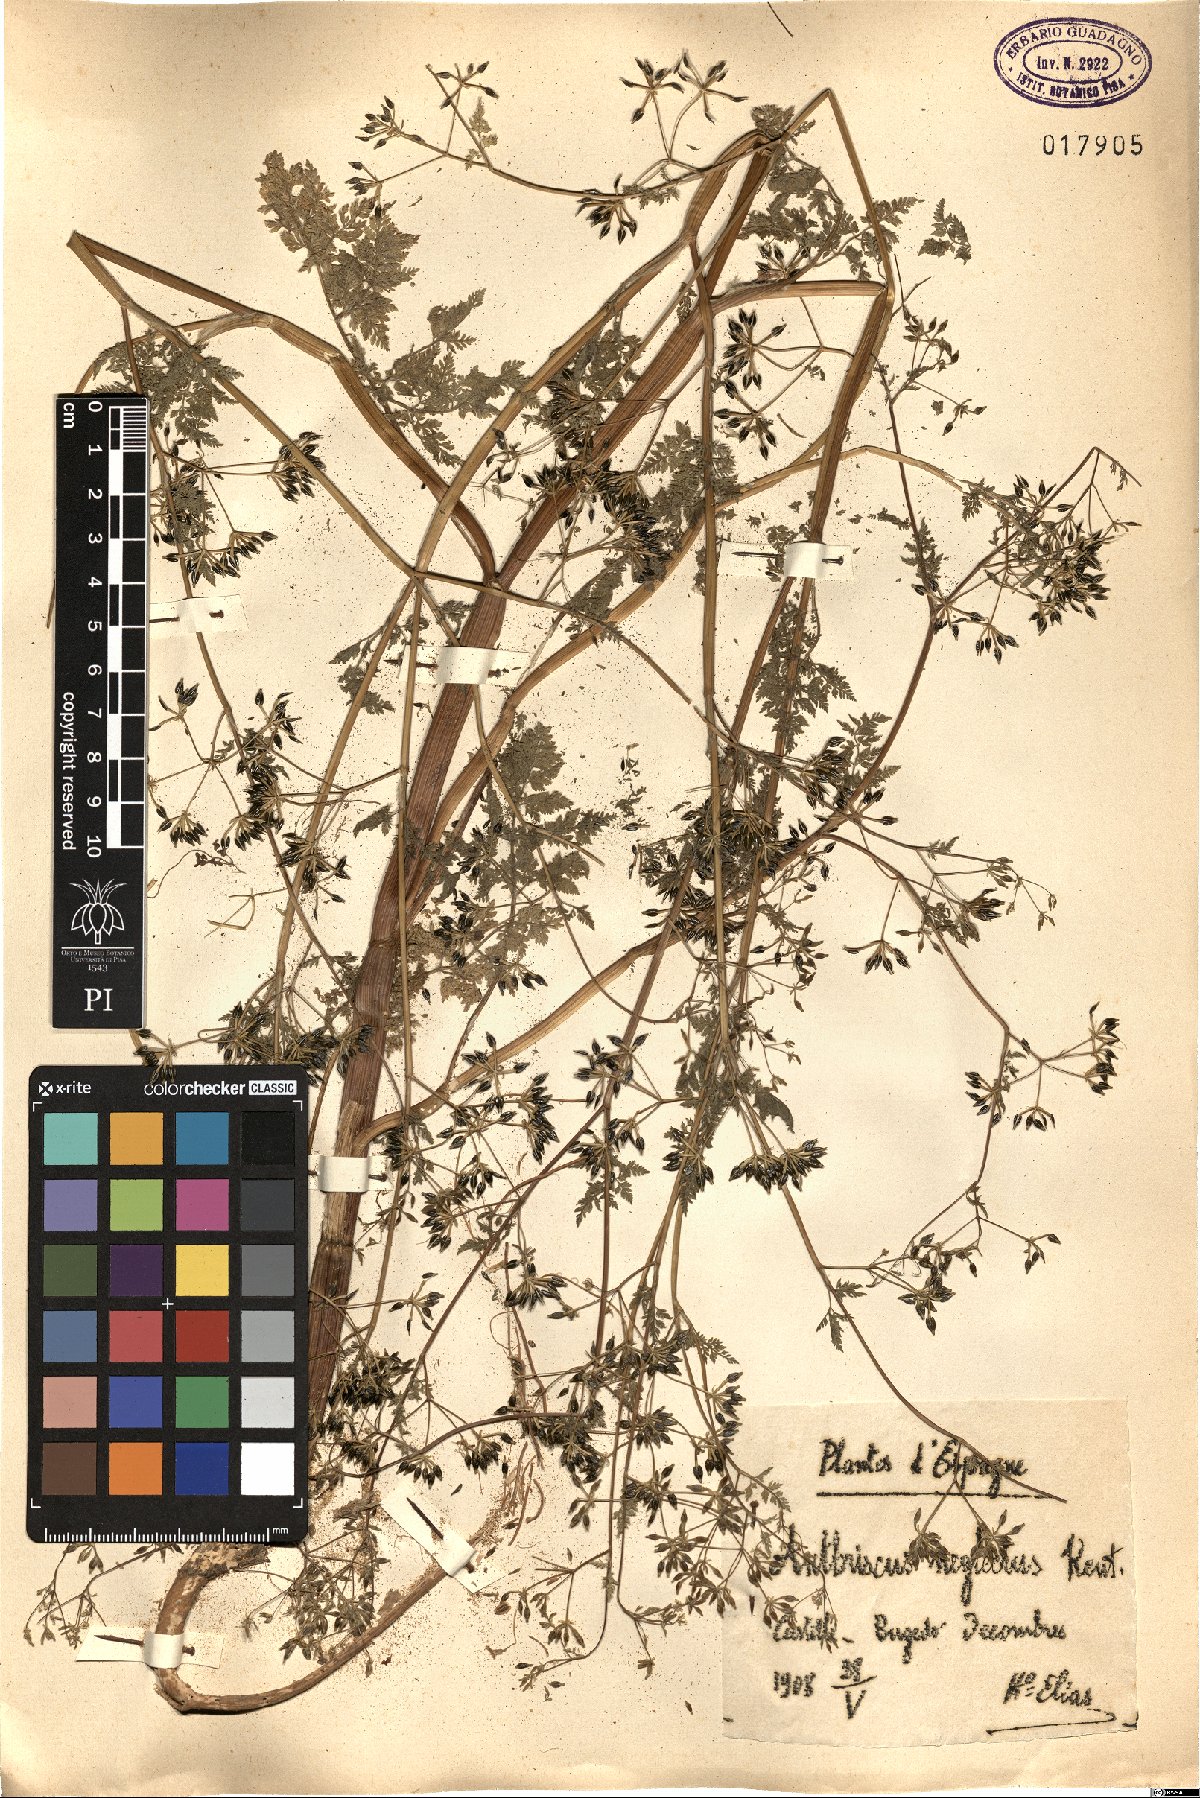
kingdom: Plantae
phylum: Tracheophyta
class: Magnoliopsida
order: Apiales
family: Apiaceae
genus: Anthriscus
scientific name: Anthriscus caucalis
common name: Bur chervil
